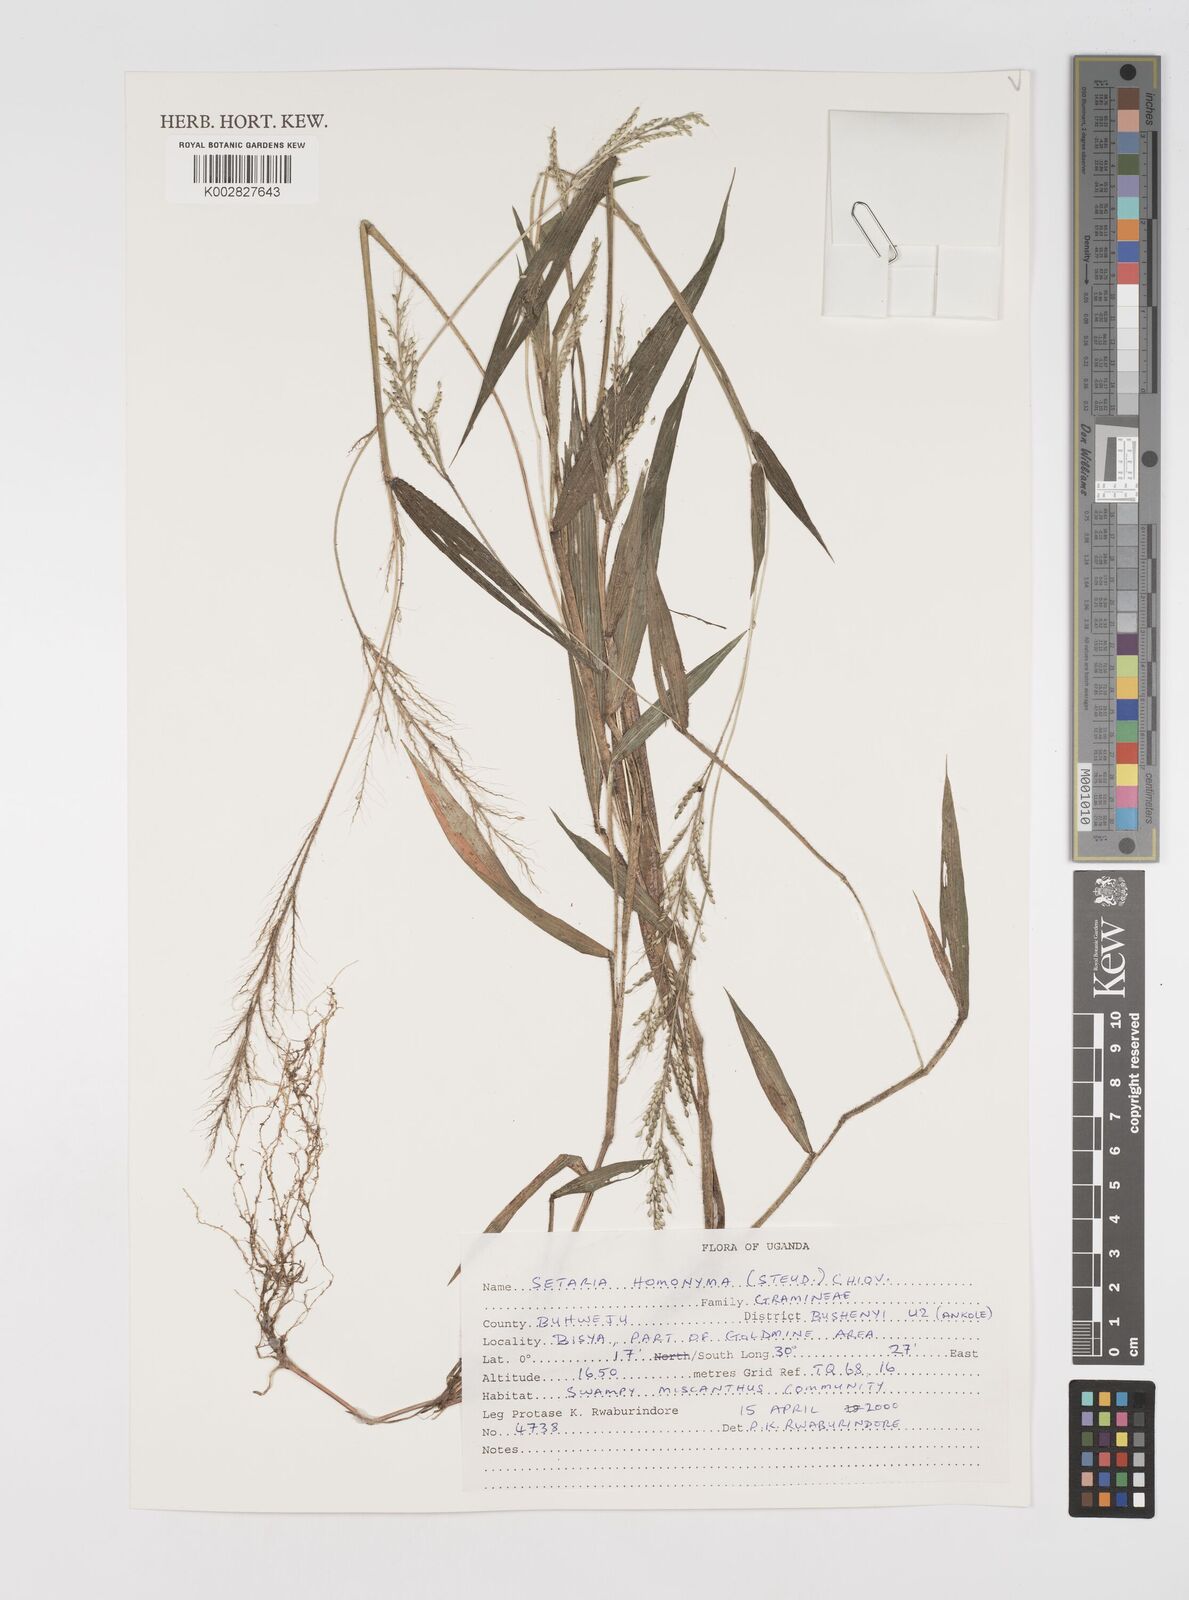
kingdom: Plantae
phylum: Tracheophyta
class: Liliopsida
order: Poales
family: Poaceae
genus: Setaria
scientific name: Setaria homonyma
